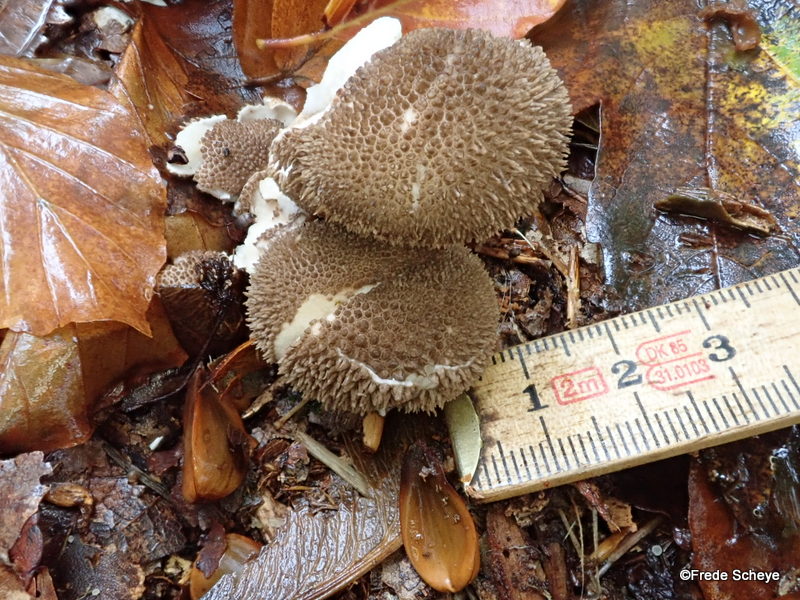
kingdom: Fungi
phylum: Basidiomycota
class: Agaricomycetes
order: Agaricales
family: Lycoperdaceae
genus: Lycoperdon
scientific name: Lycoperdon nigrescens
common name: sortagtig støvbold
